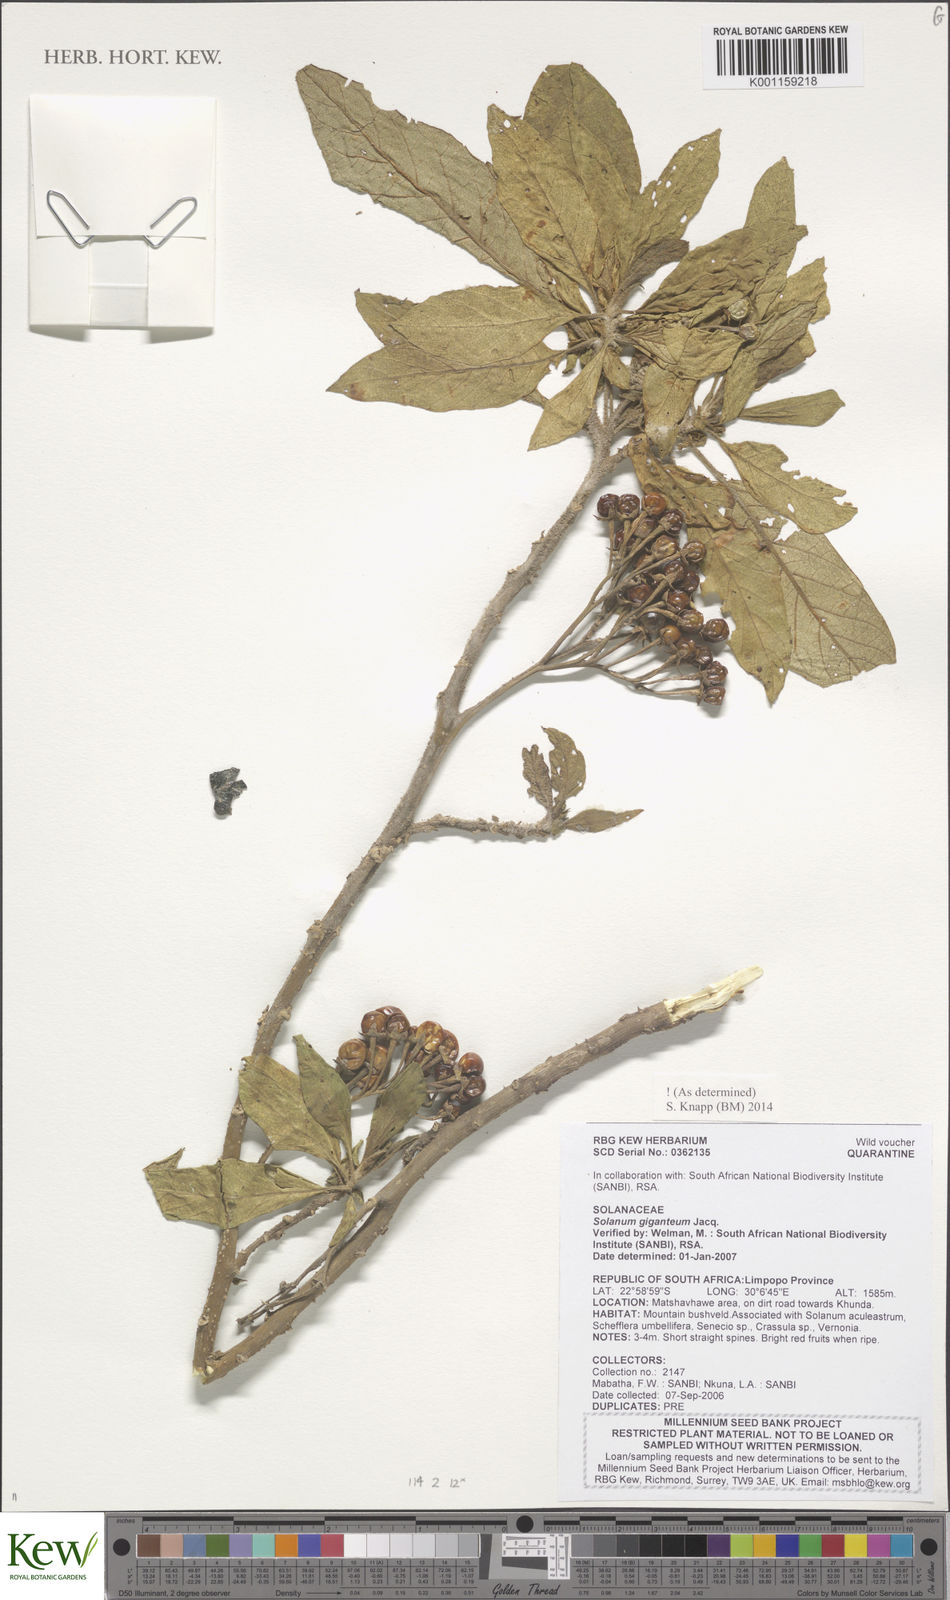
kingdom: Plantae
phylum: Tracheophyta
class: Magnoliopsida
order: Solanales
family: Solanaceae
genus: Solanum
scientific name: Solanum giganteum
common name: Healing-leaf-tree
